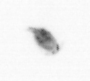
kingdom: Animalia
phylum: Arthropoda
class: Copepoda
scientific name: Copepoda
